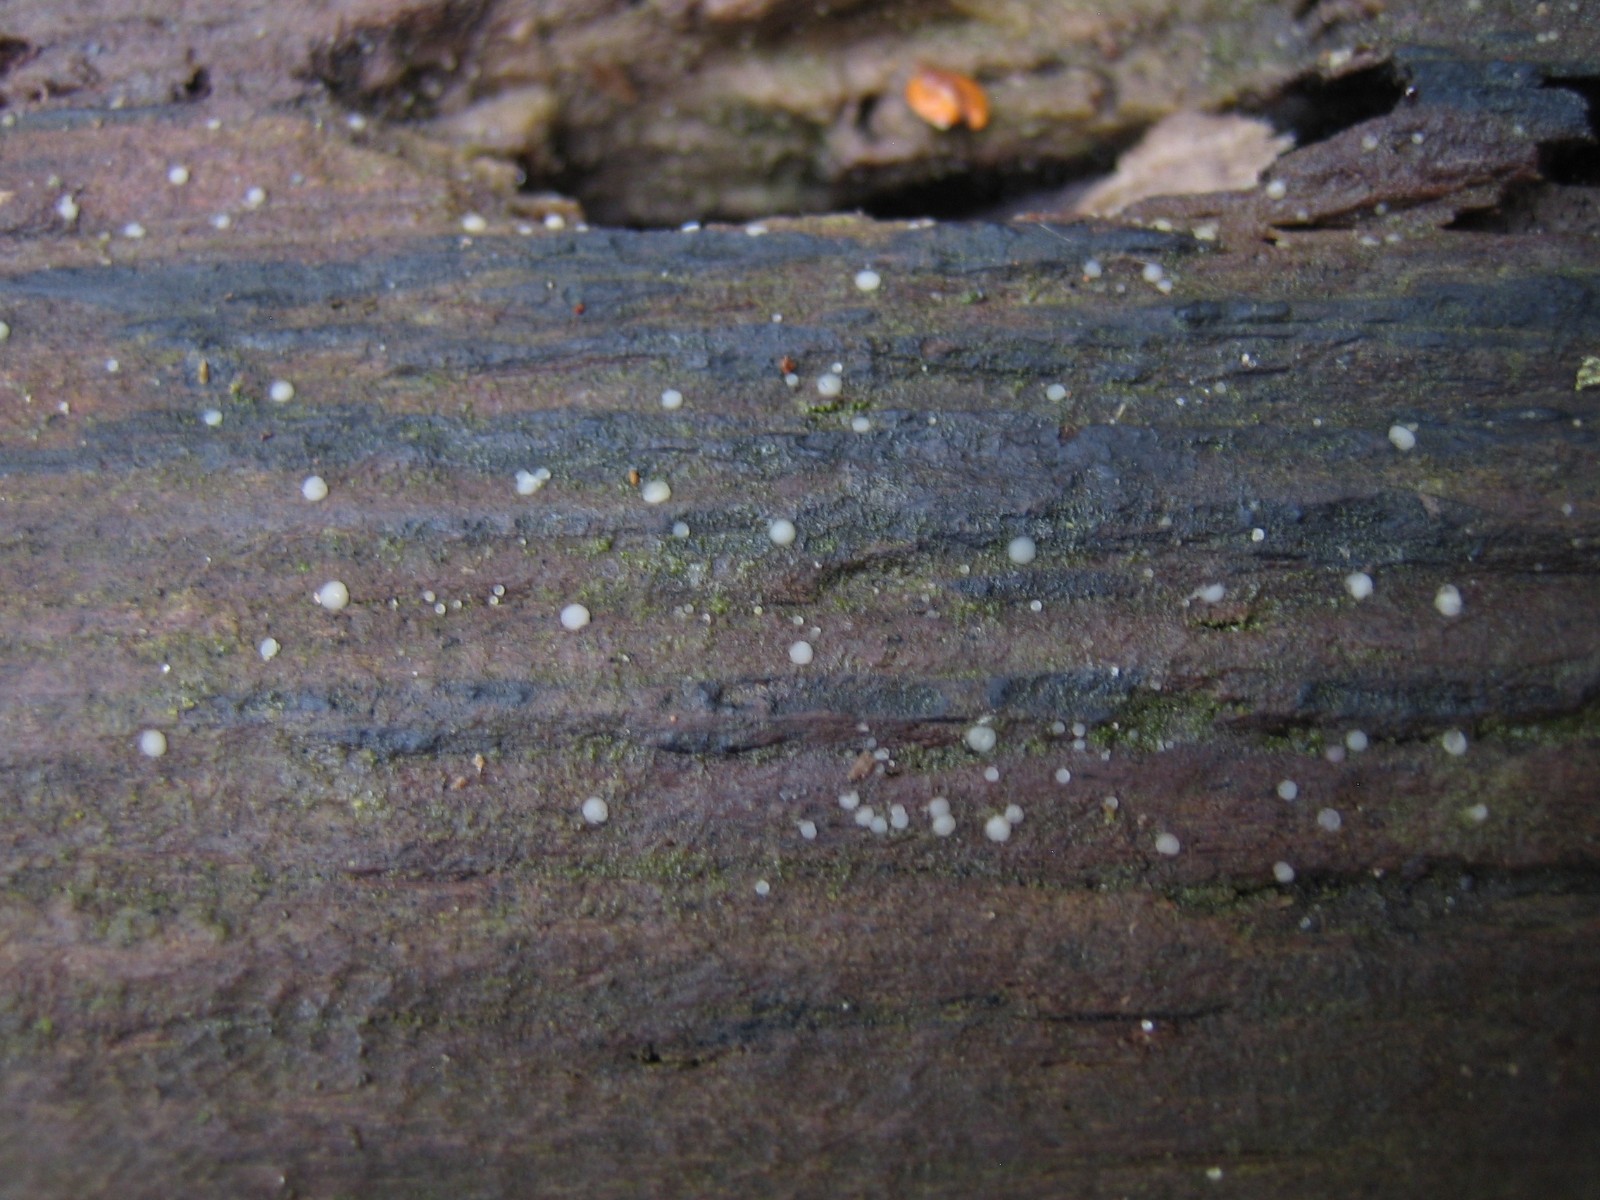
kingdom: Fungi
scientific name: Fungi
